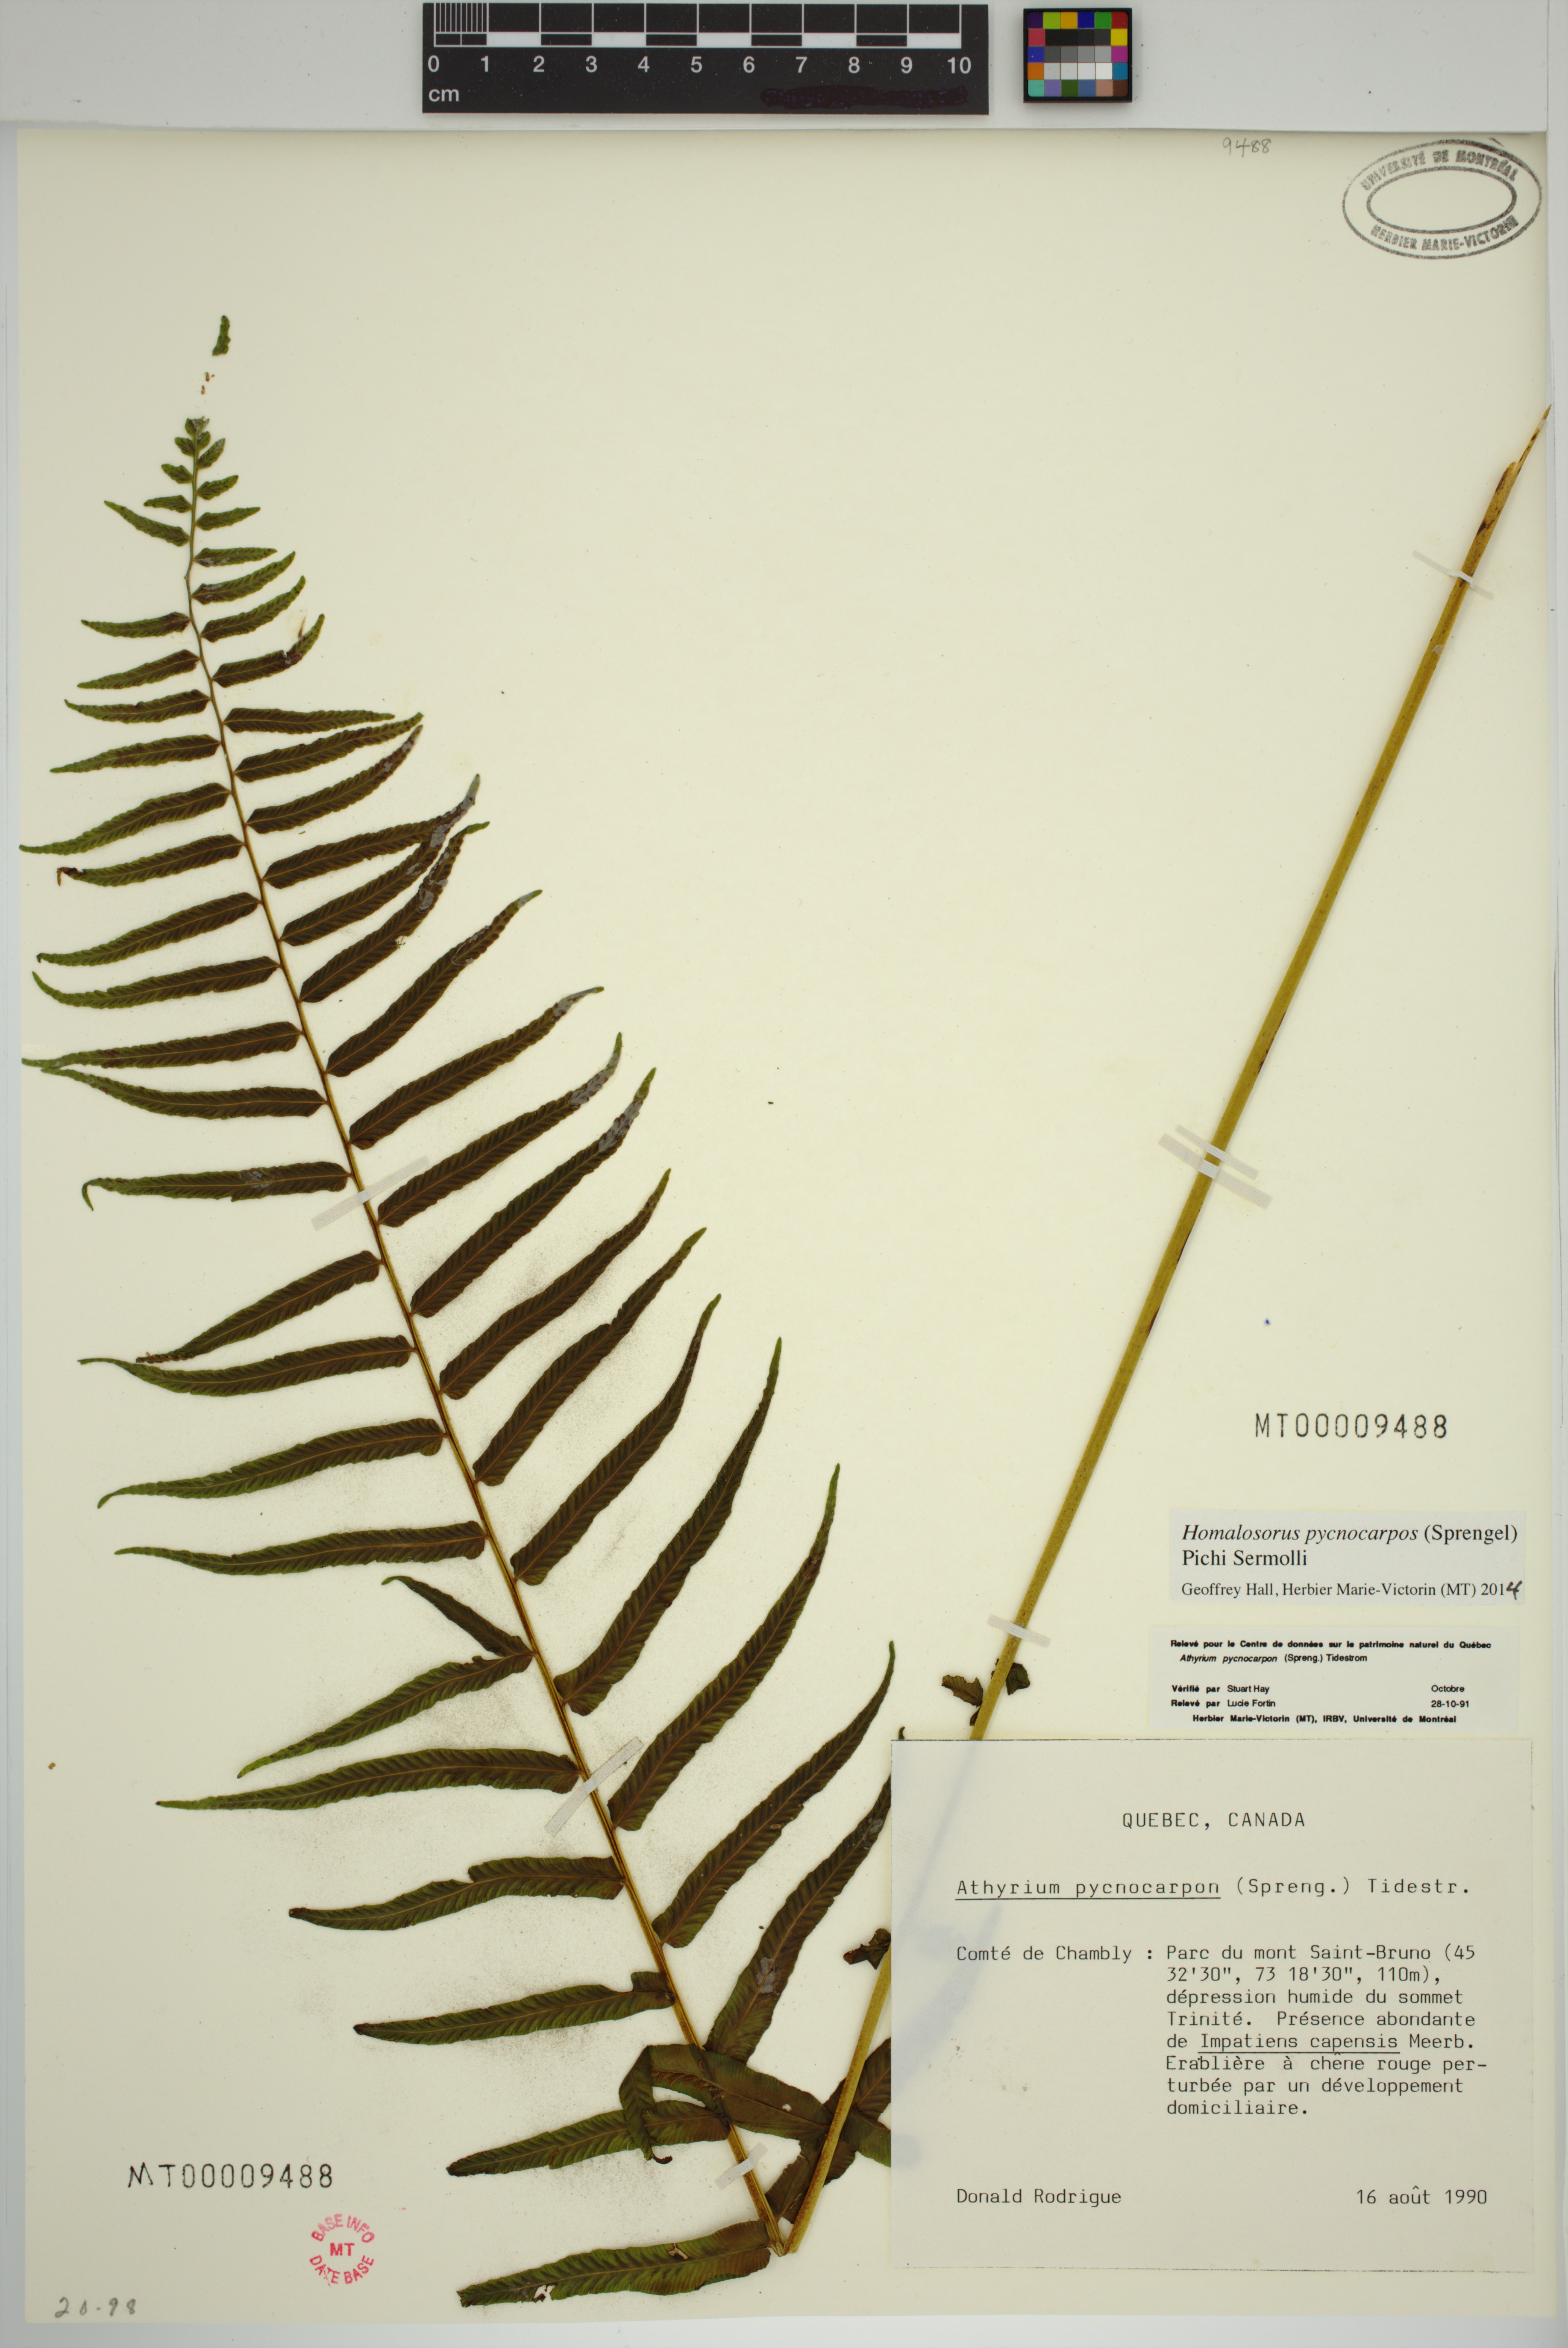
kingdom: Plantae
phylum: Tracheophyta
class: Polypodiopsida
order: Polypodiales
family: Diplaziopsidaceae
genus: Homalosorus
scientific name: Homalosorus pycnocarpos
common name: Glade fern
